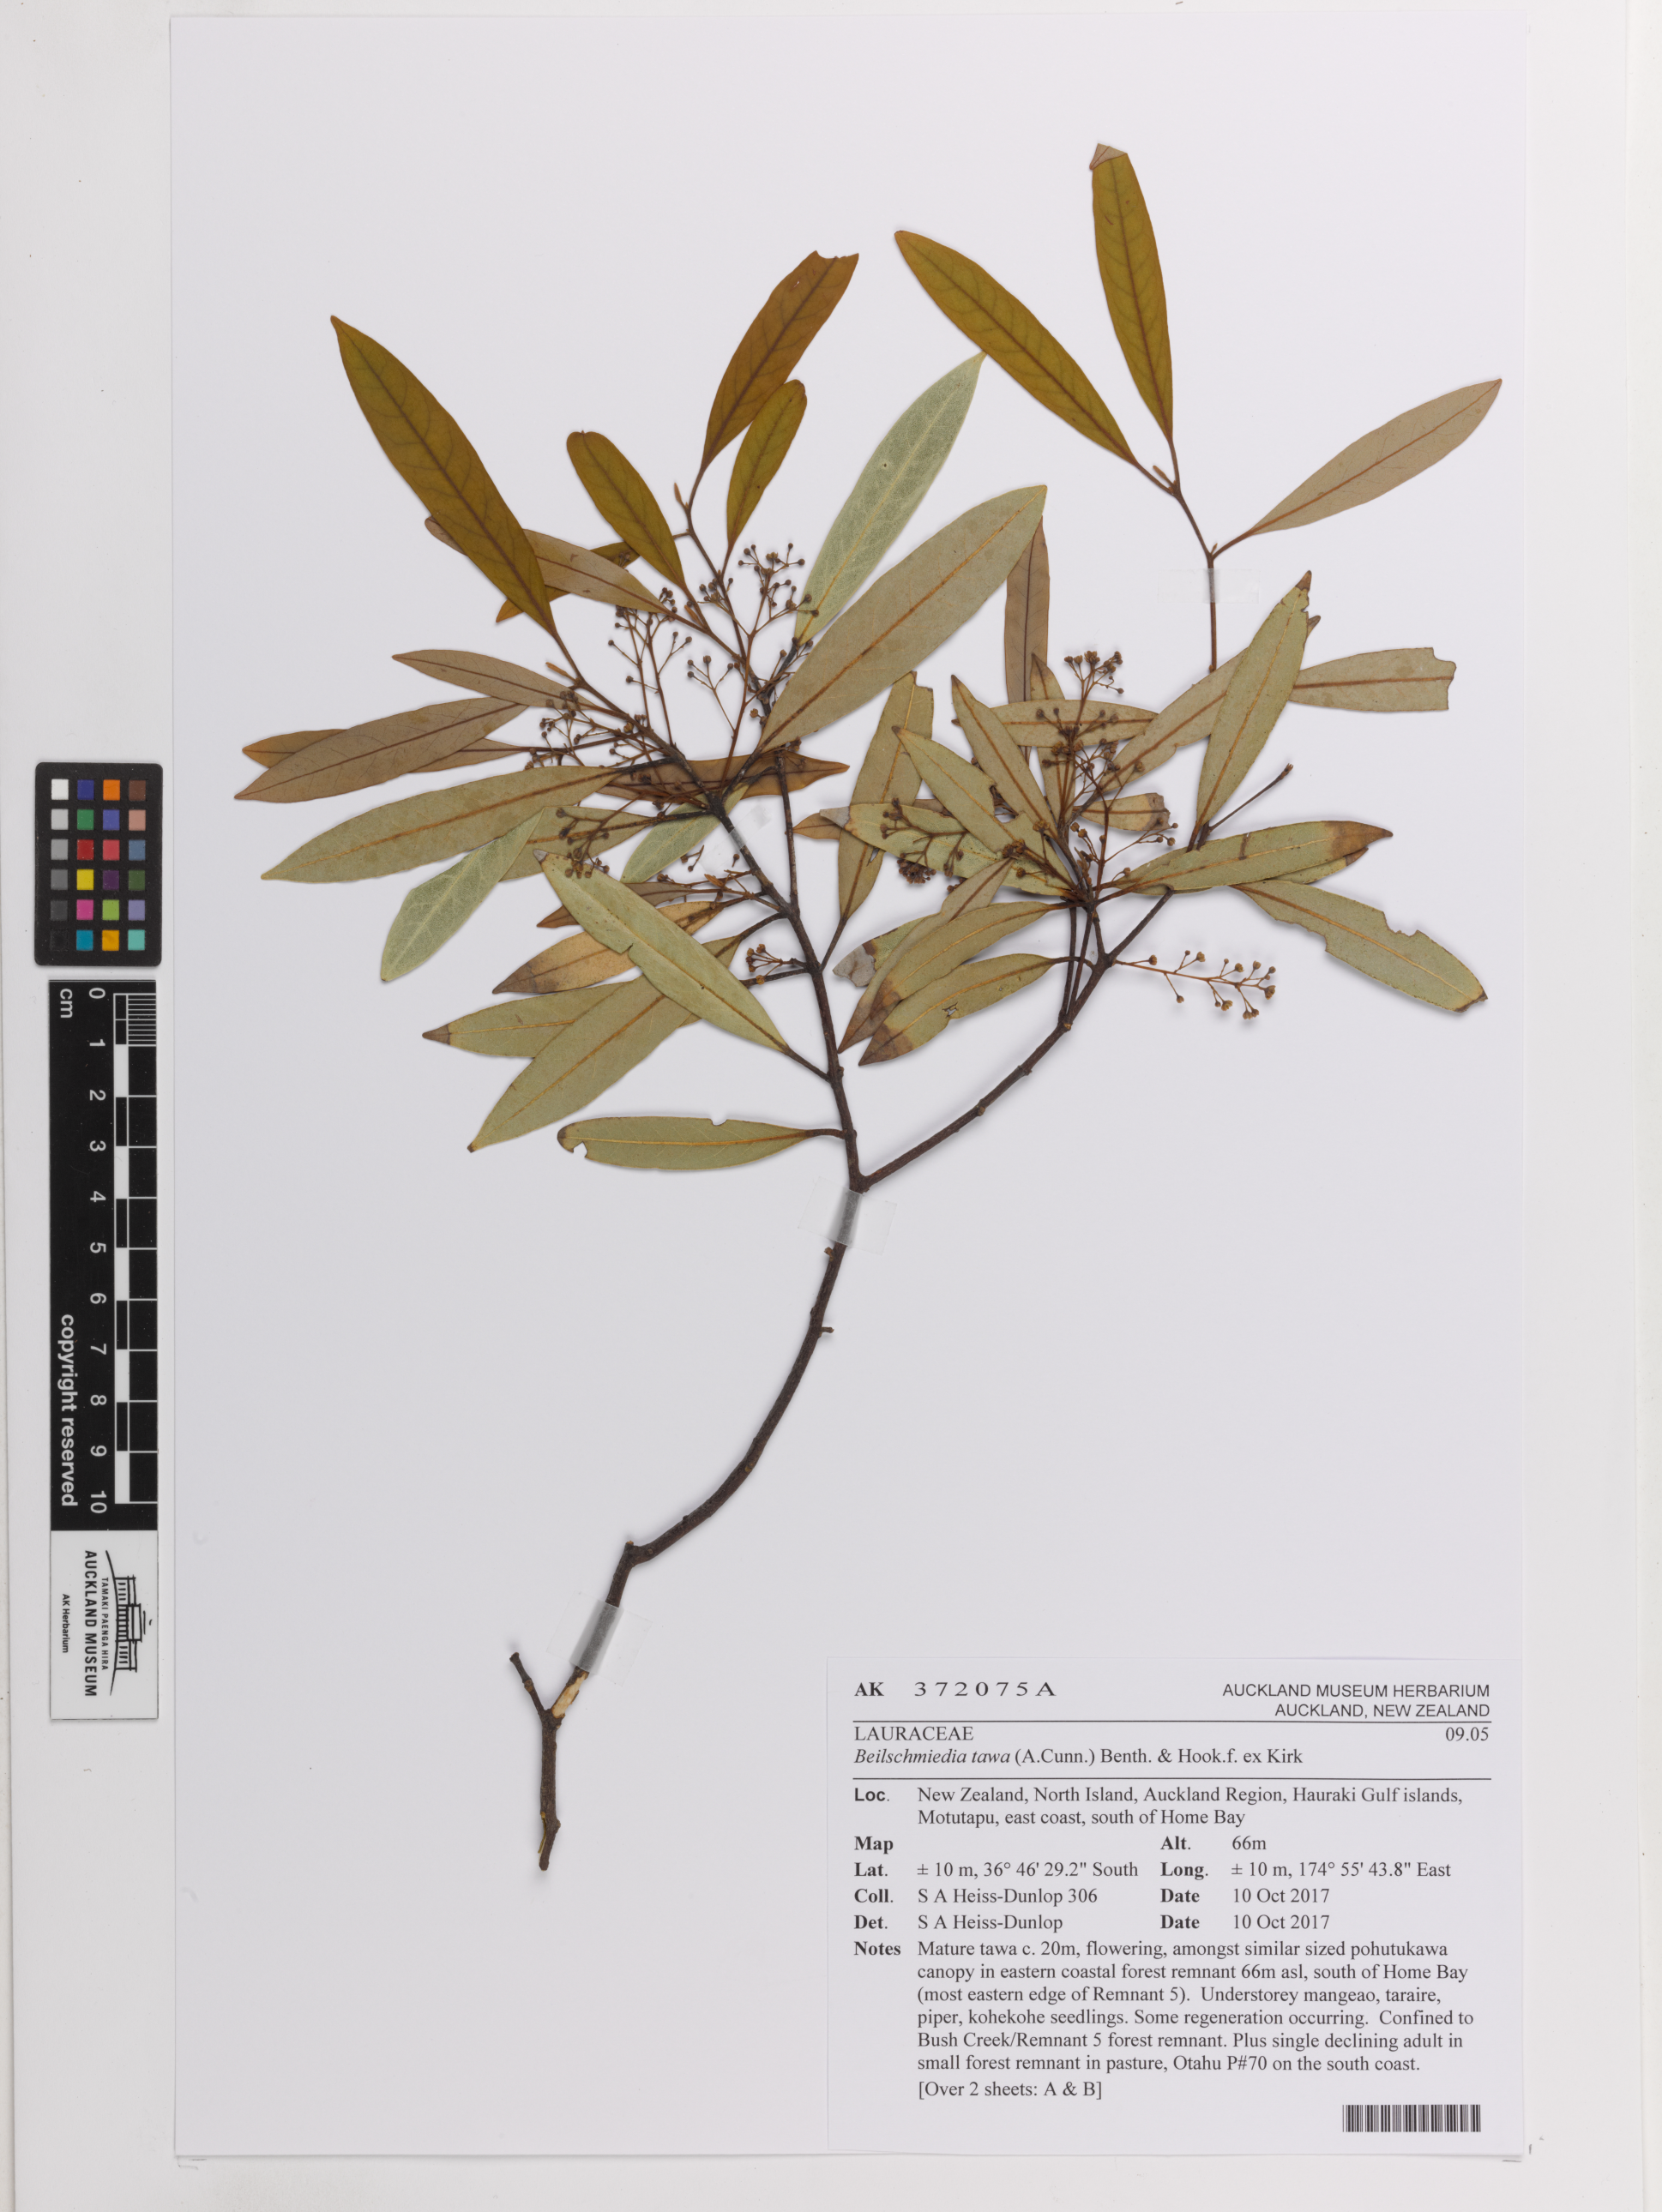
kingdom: Plantae
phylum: Tracheophyta
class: Magnoliopsida
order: Laurales
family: Lauraceae
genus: Beilschmiedia
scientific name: Beilschmiedia tawa
